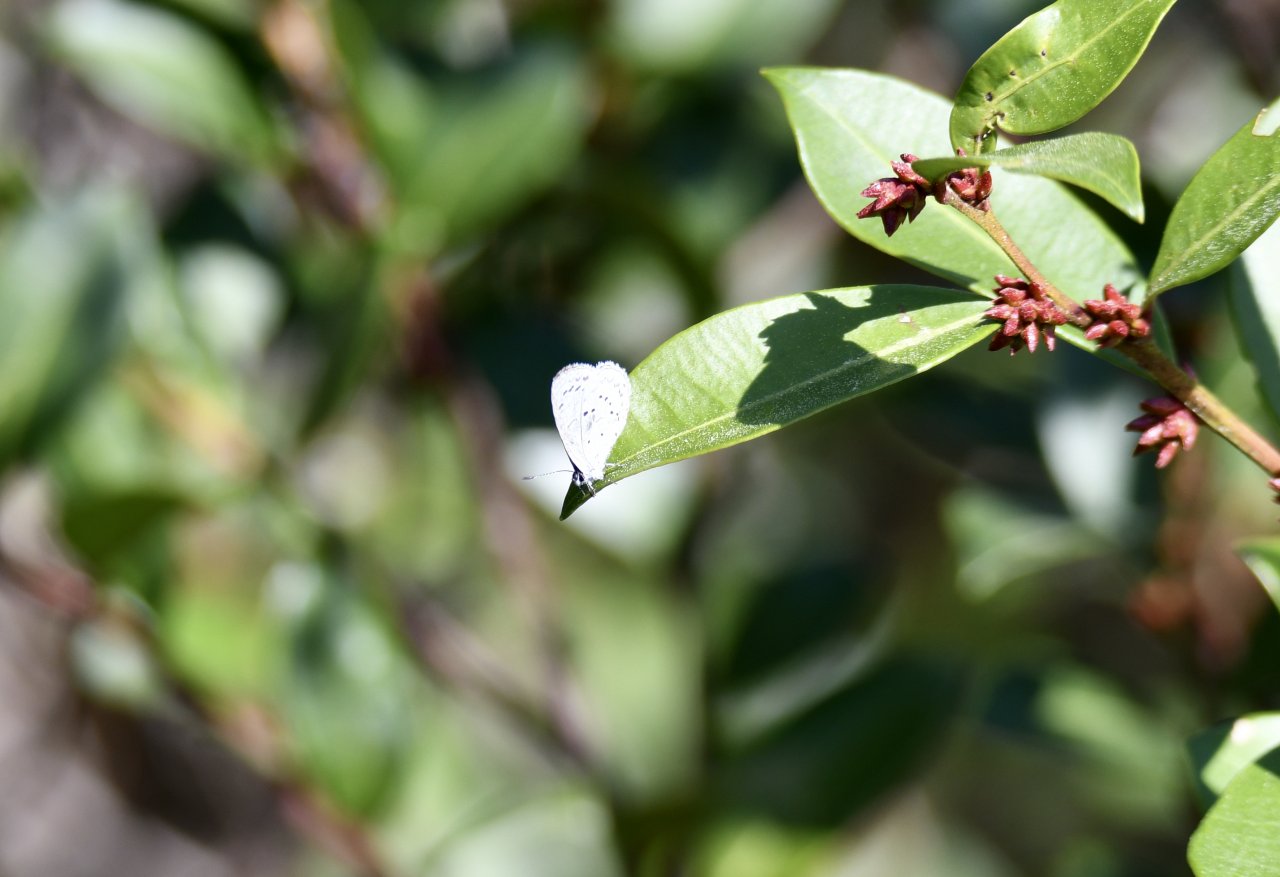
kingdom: Animalia
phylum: Arthropoda
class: Insecta
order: Lepidoptera
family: Lycaenidae
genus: Celastrina
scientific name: Celastrina idella
